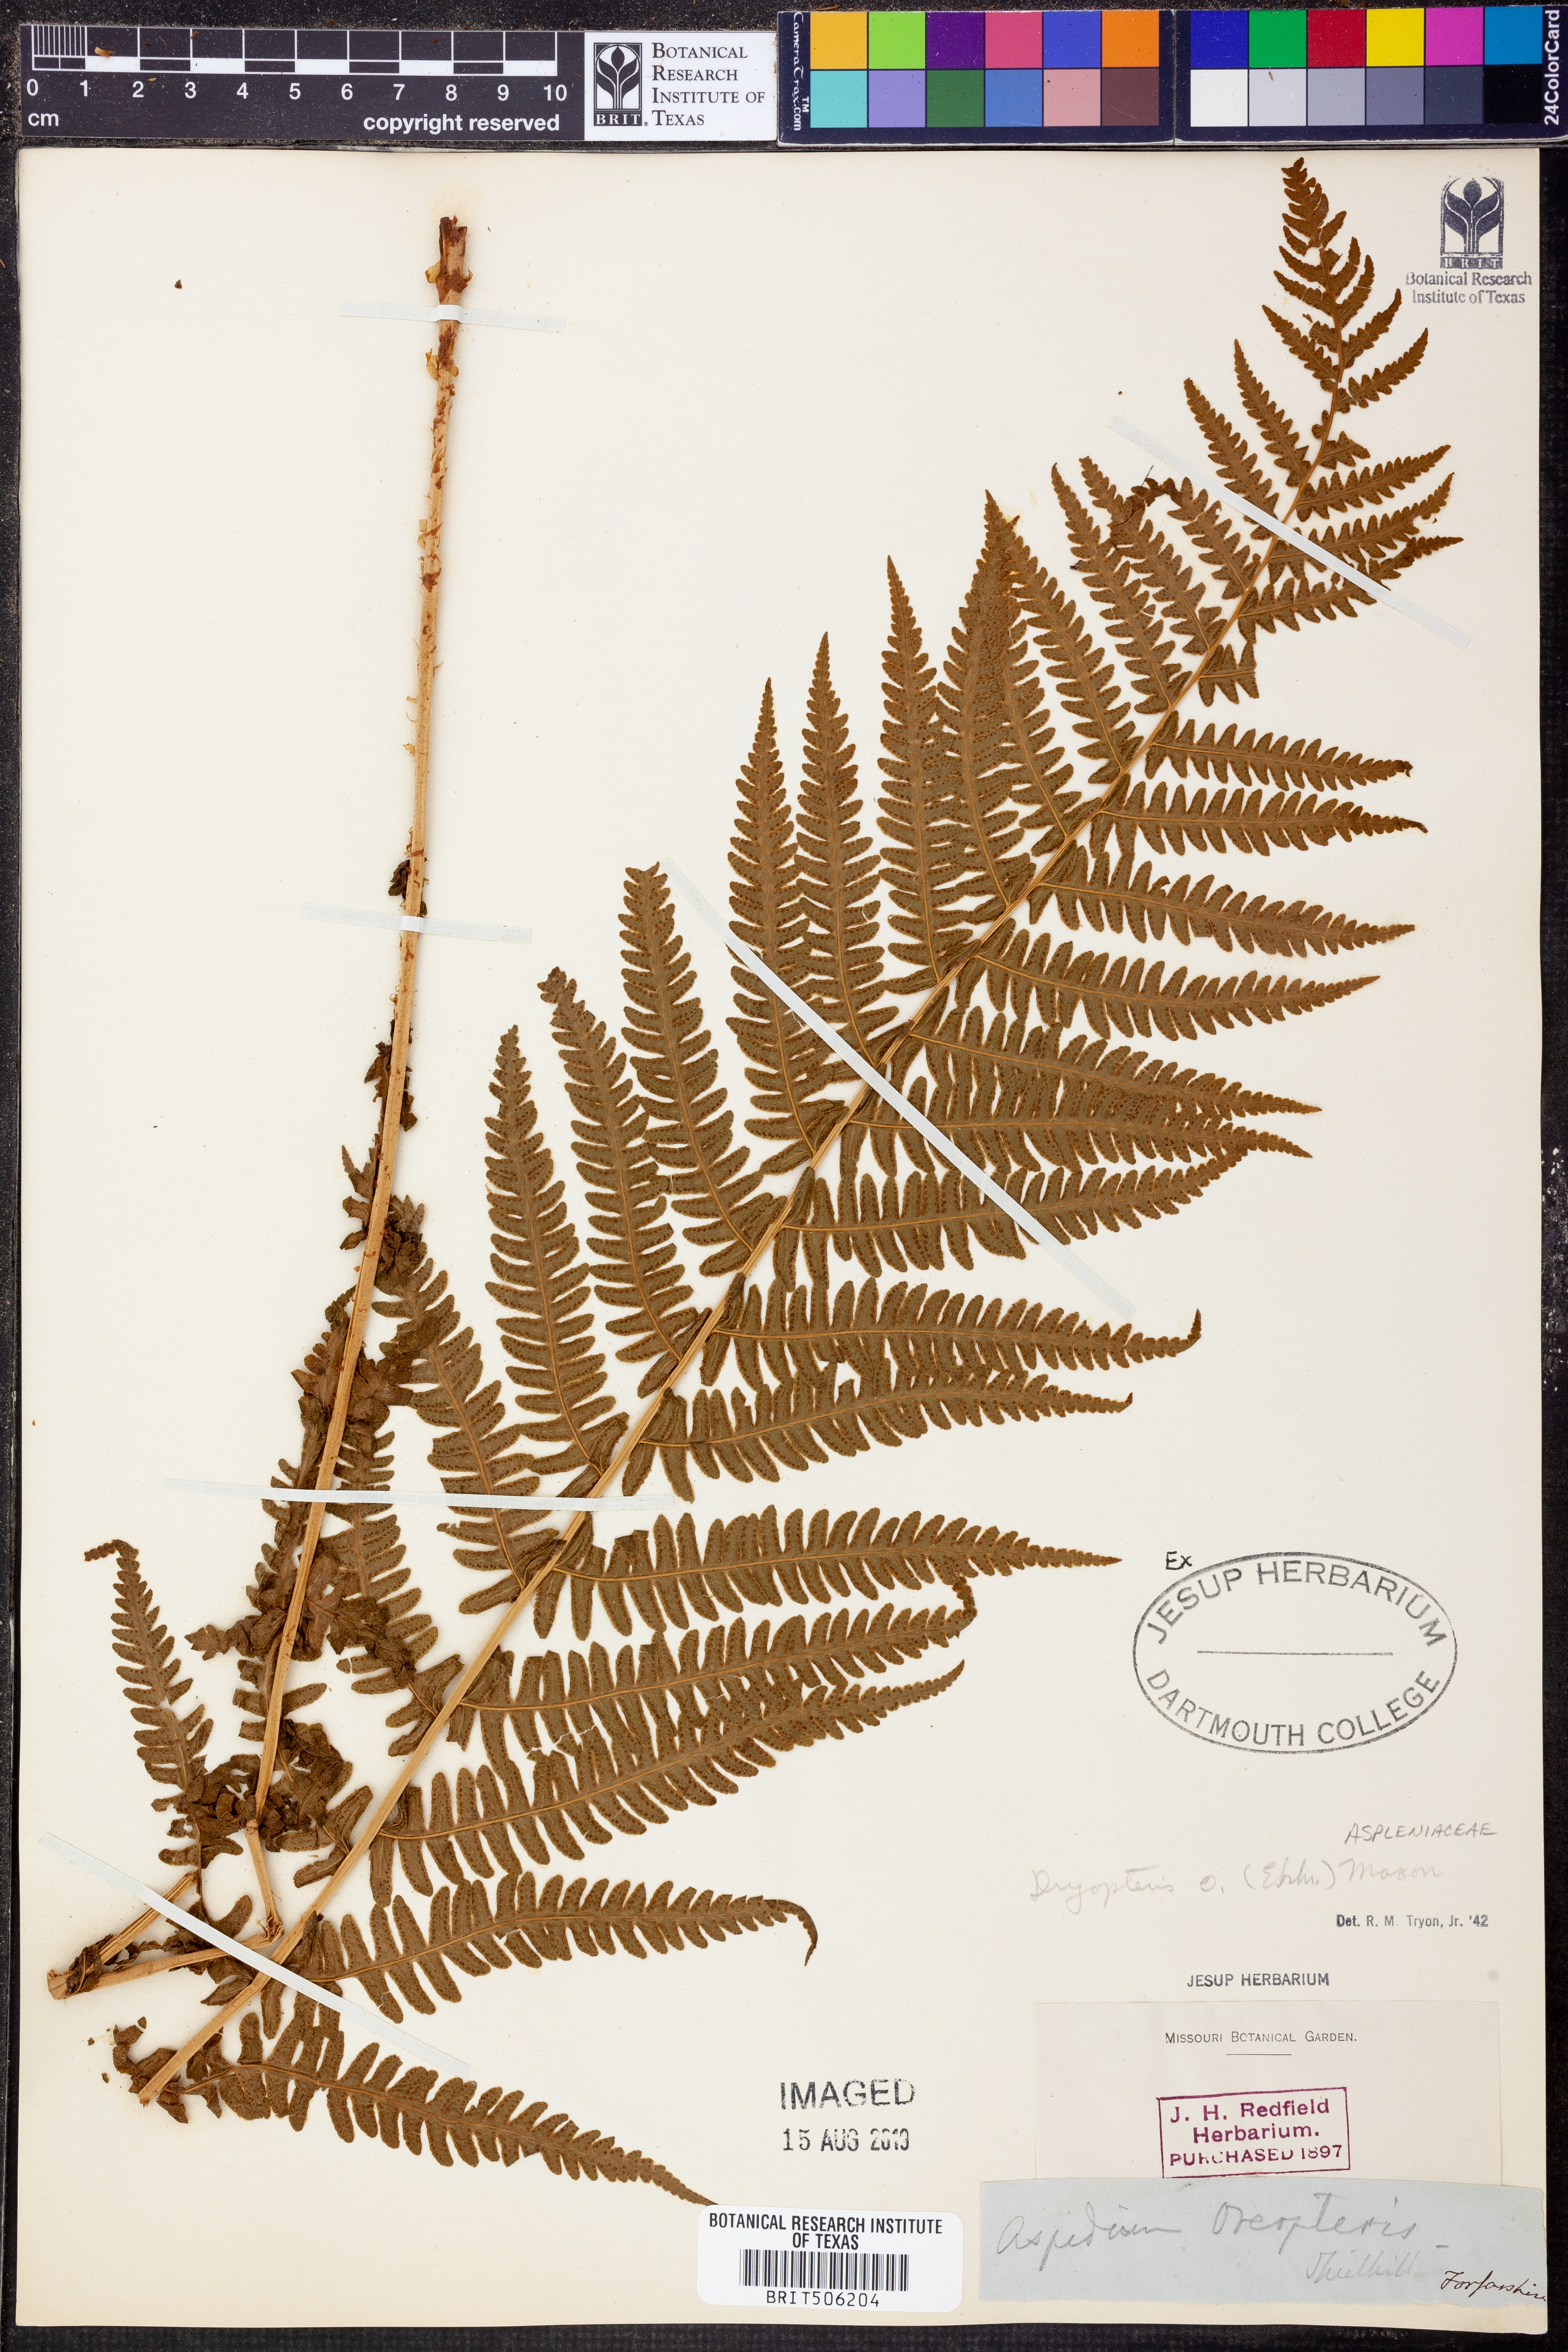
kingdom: Plantae
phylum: Tracheophyta
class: Polypodiopsida
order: Polypodiales
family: Thelypteridaceae
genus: Oreopteris
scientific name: Oreopteris limbosperma
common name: Lemon-scented fern
